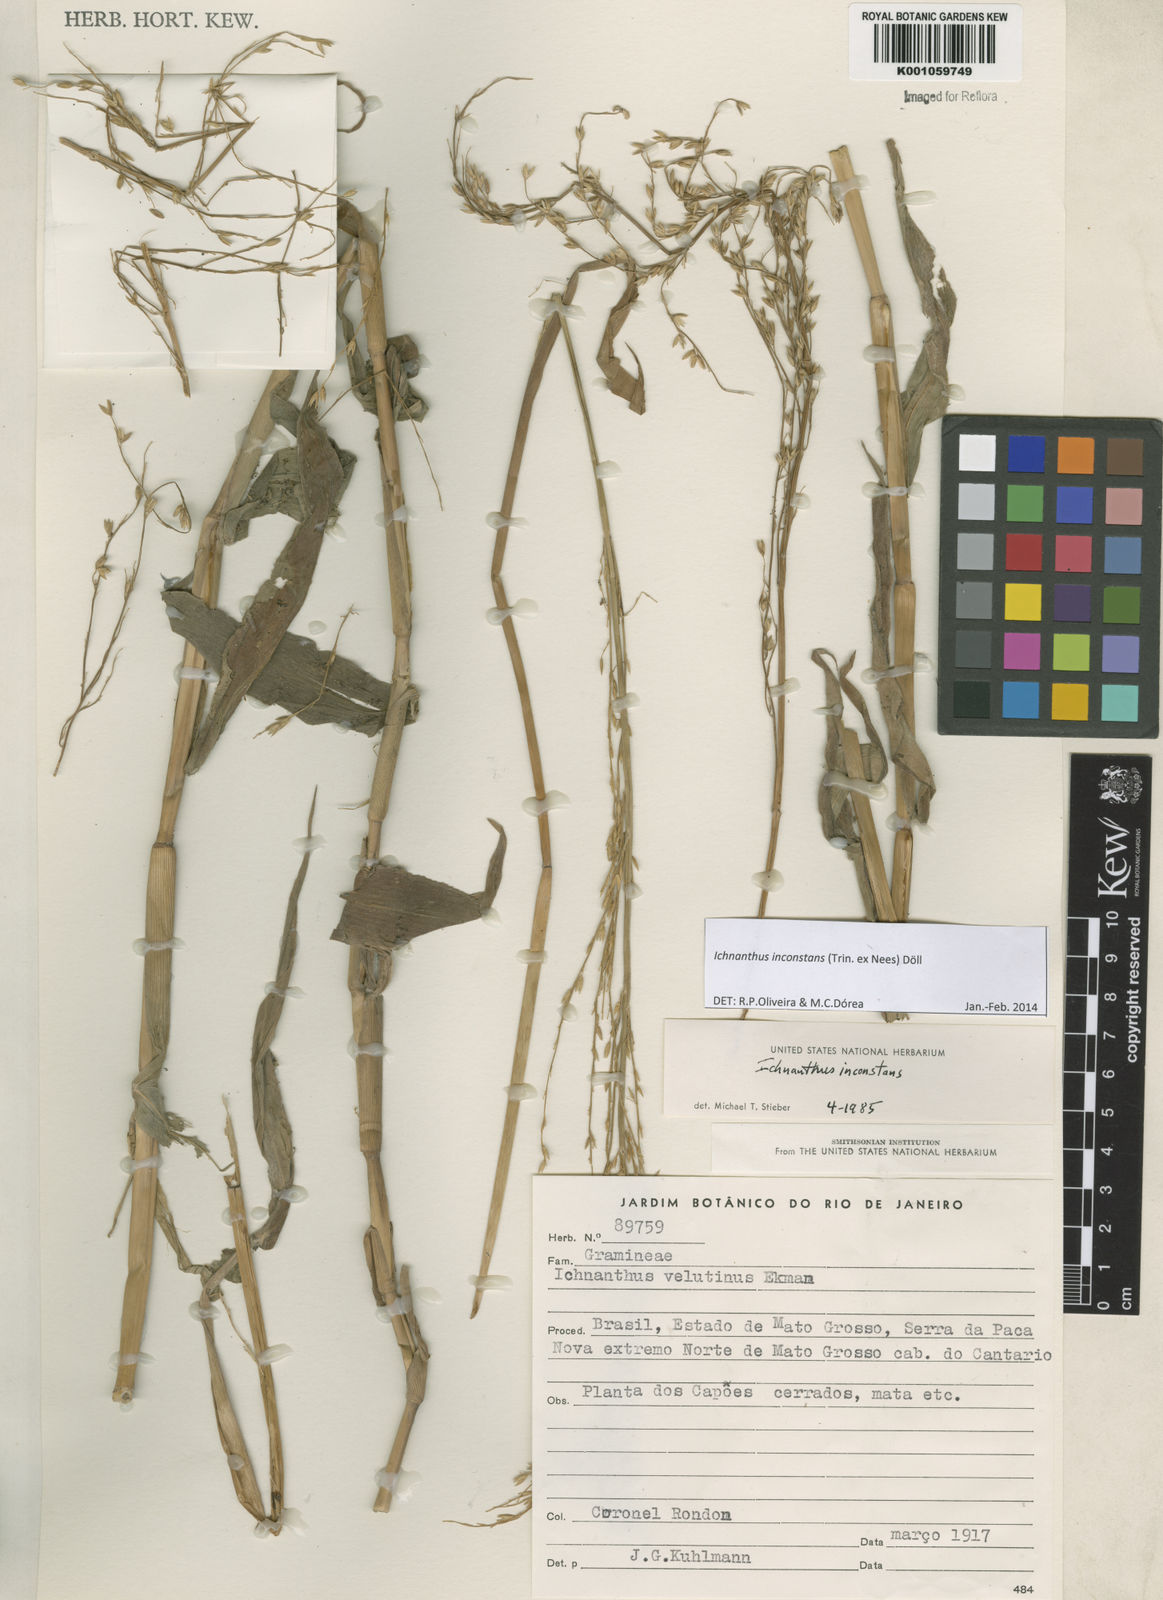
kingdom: Plantae
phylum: Tracheophyta
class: Liliopsida
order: Poales
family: Poaceae
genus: Ichnanthus
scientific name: Ichnanthus
